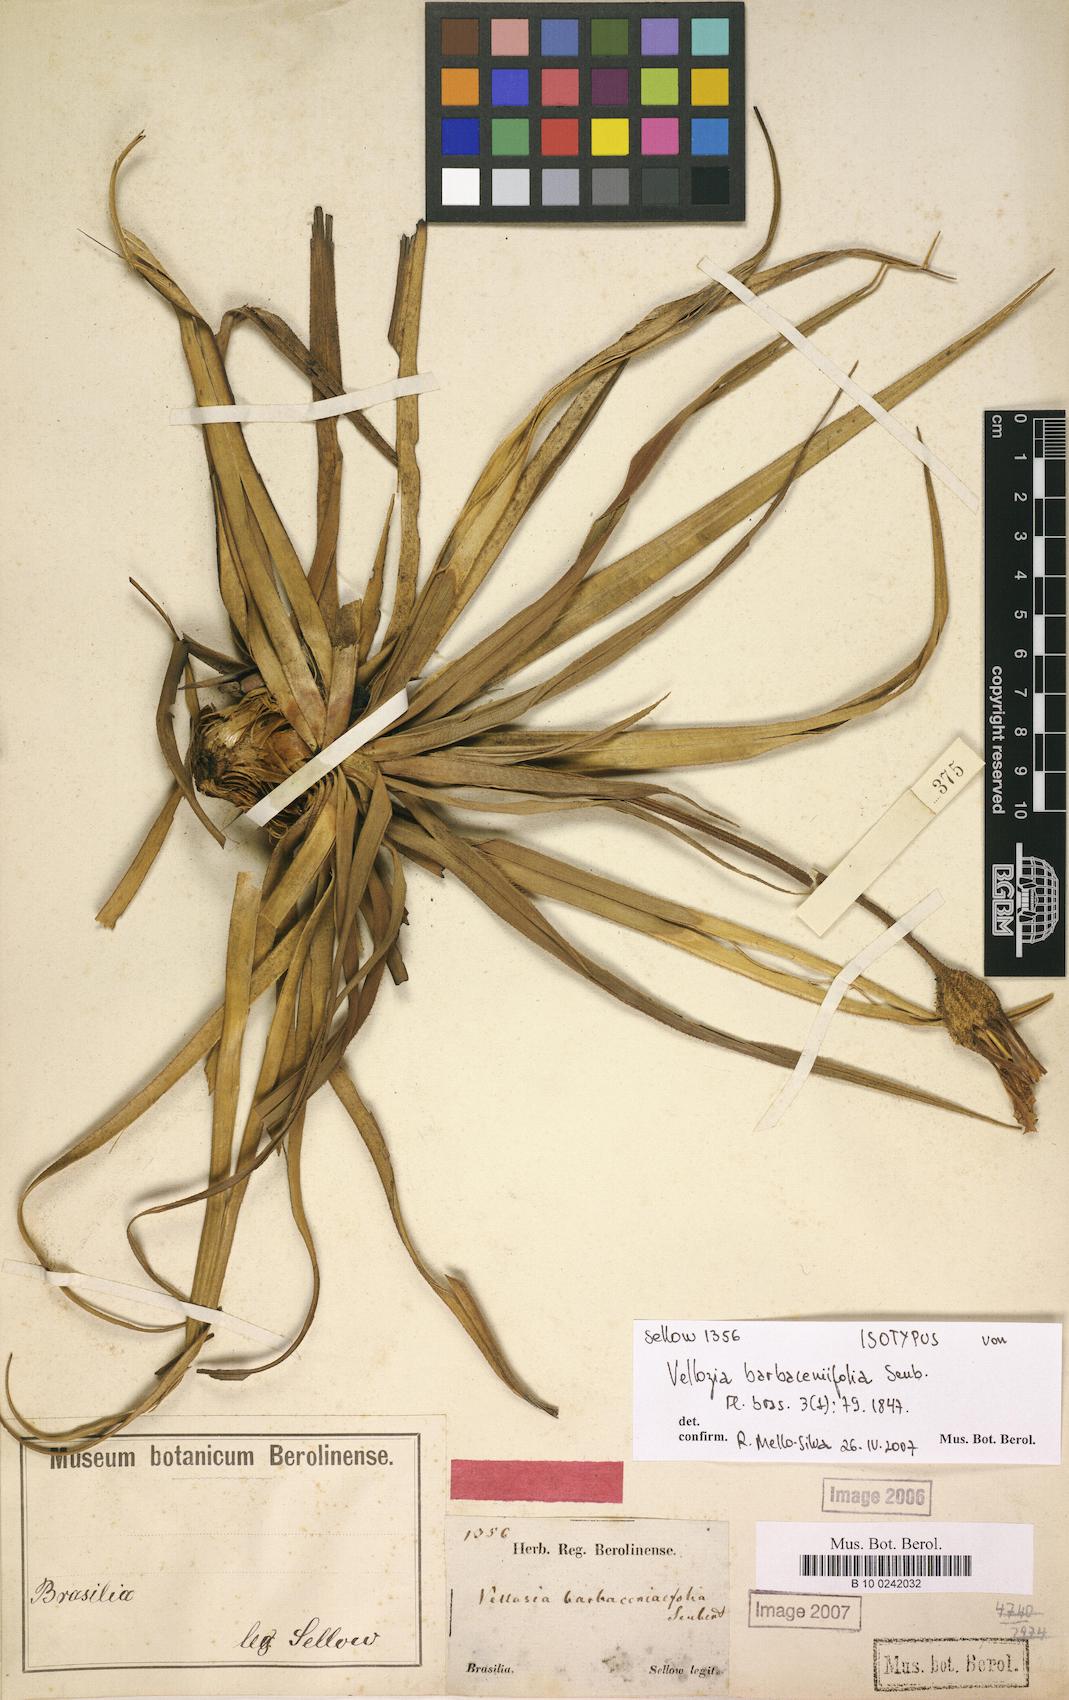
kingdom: Plantae
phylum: Tracheophyta
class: Liliopsida
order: Pandanales
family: Velloziaceae
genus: Vellozia
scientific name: Vellozia barbaceniifolia
